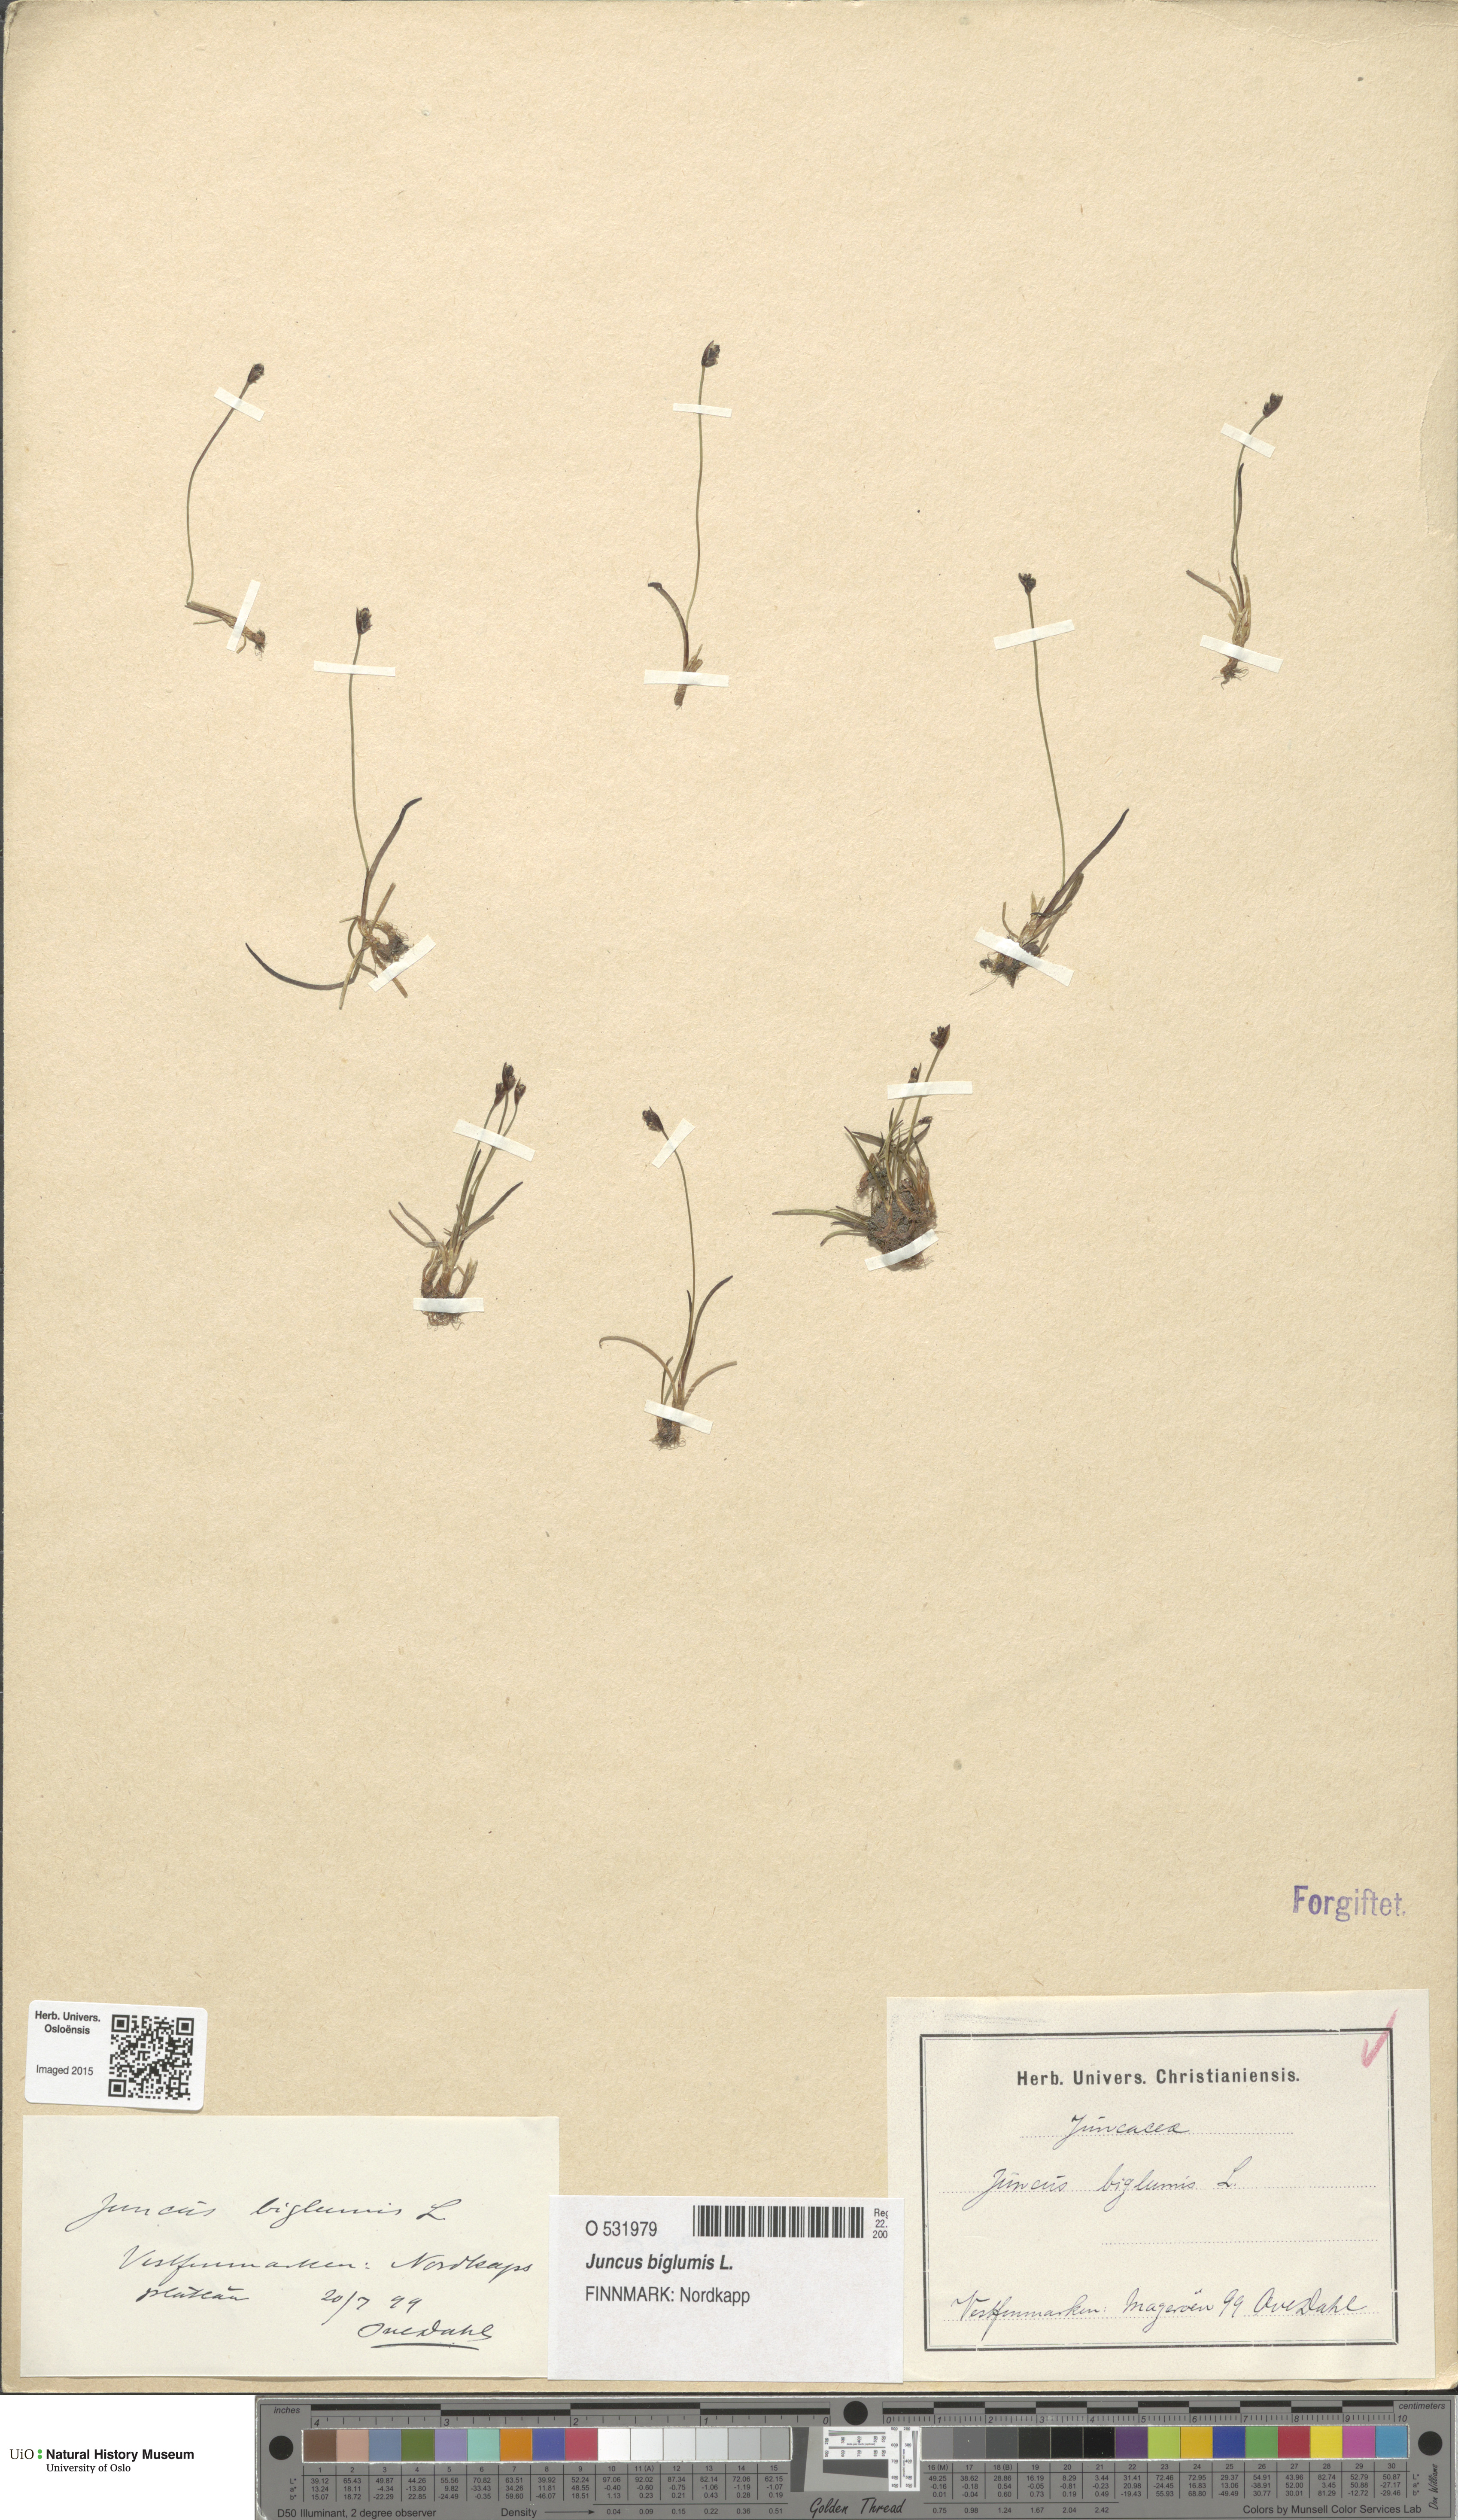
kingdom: Plantae
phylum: Tracheophyta
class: Liliopsida
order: Poales
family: Juncaceae
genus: Juncus
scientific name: Juncus biglumis
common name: Two-flowered rush
